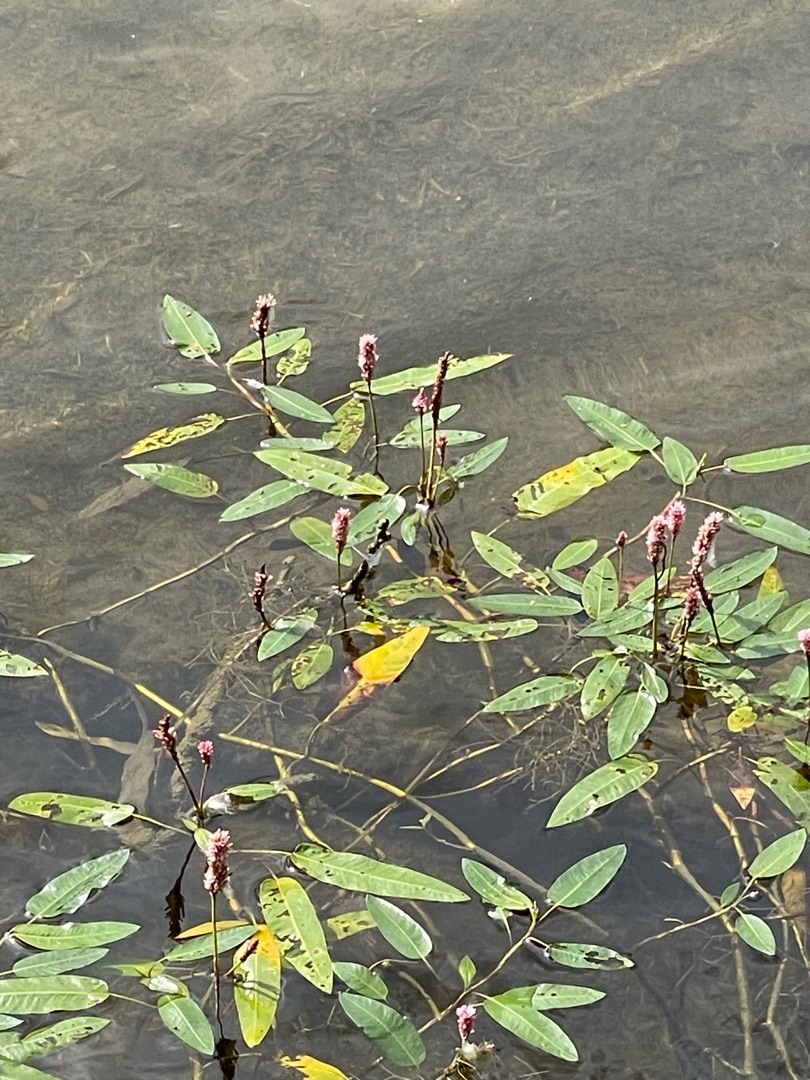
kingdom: Plantae
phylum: Tracheophyta
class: Magnoliopsida
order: Caryophyllales
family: Polygonaceae
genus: Persicaria
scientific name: Persicaria amphibia
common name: Vand-pileurt
